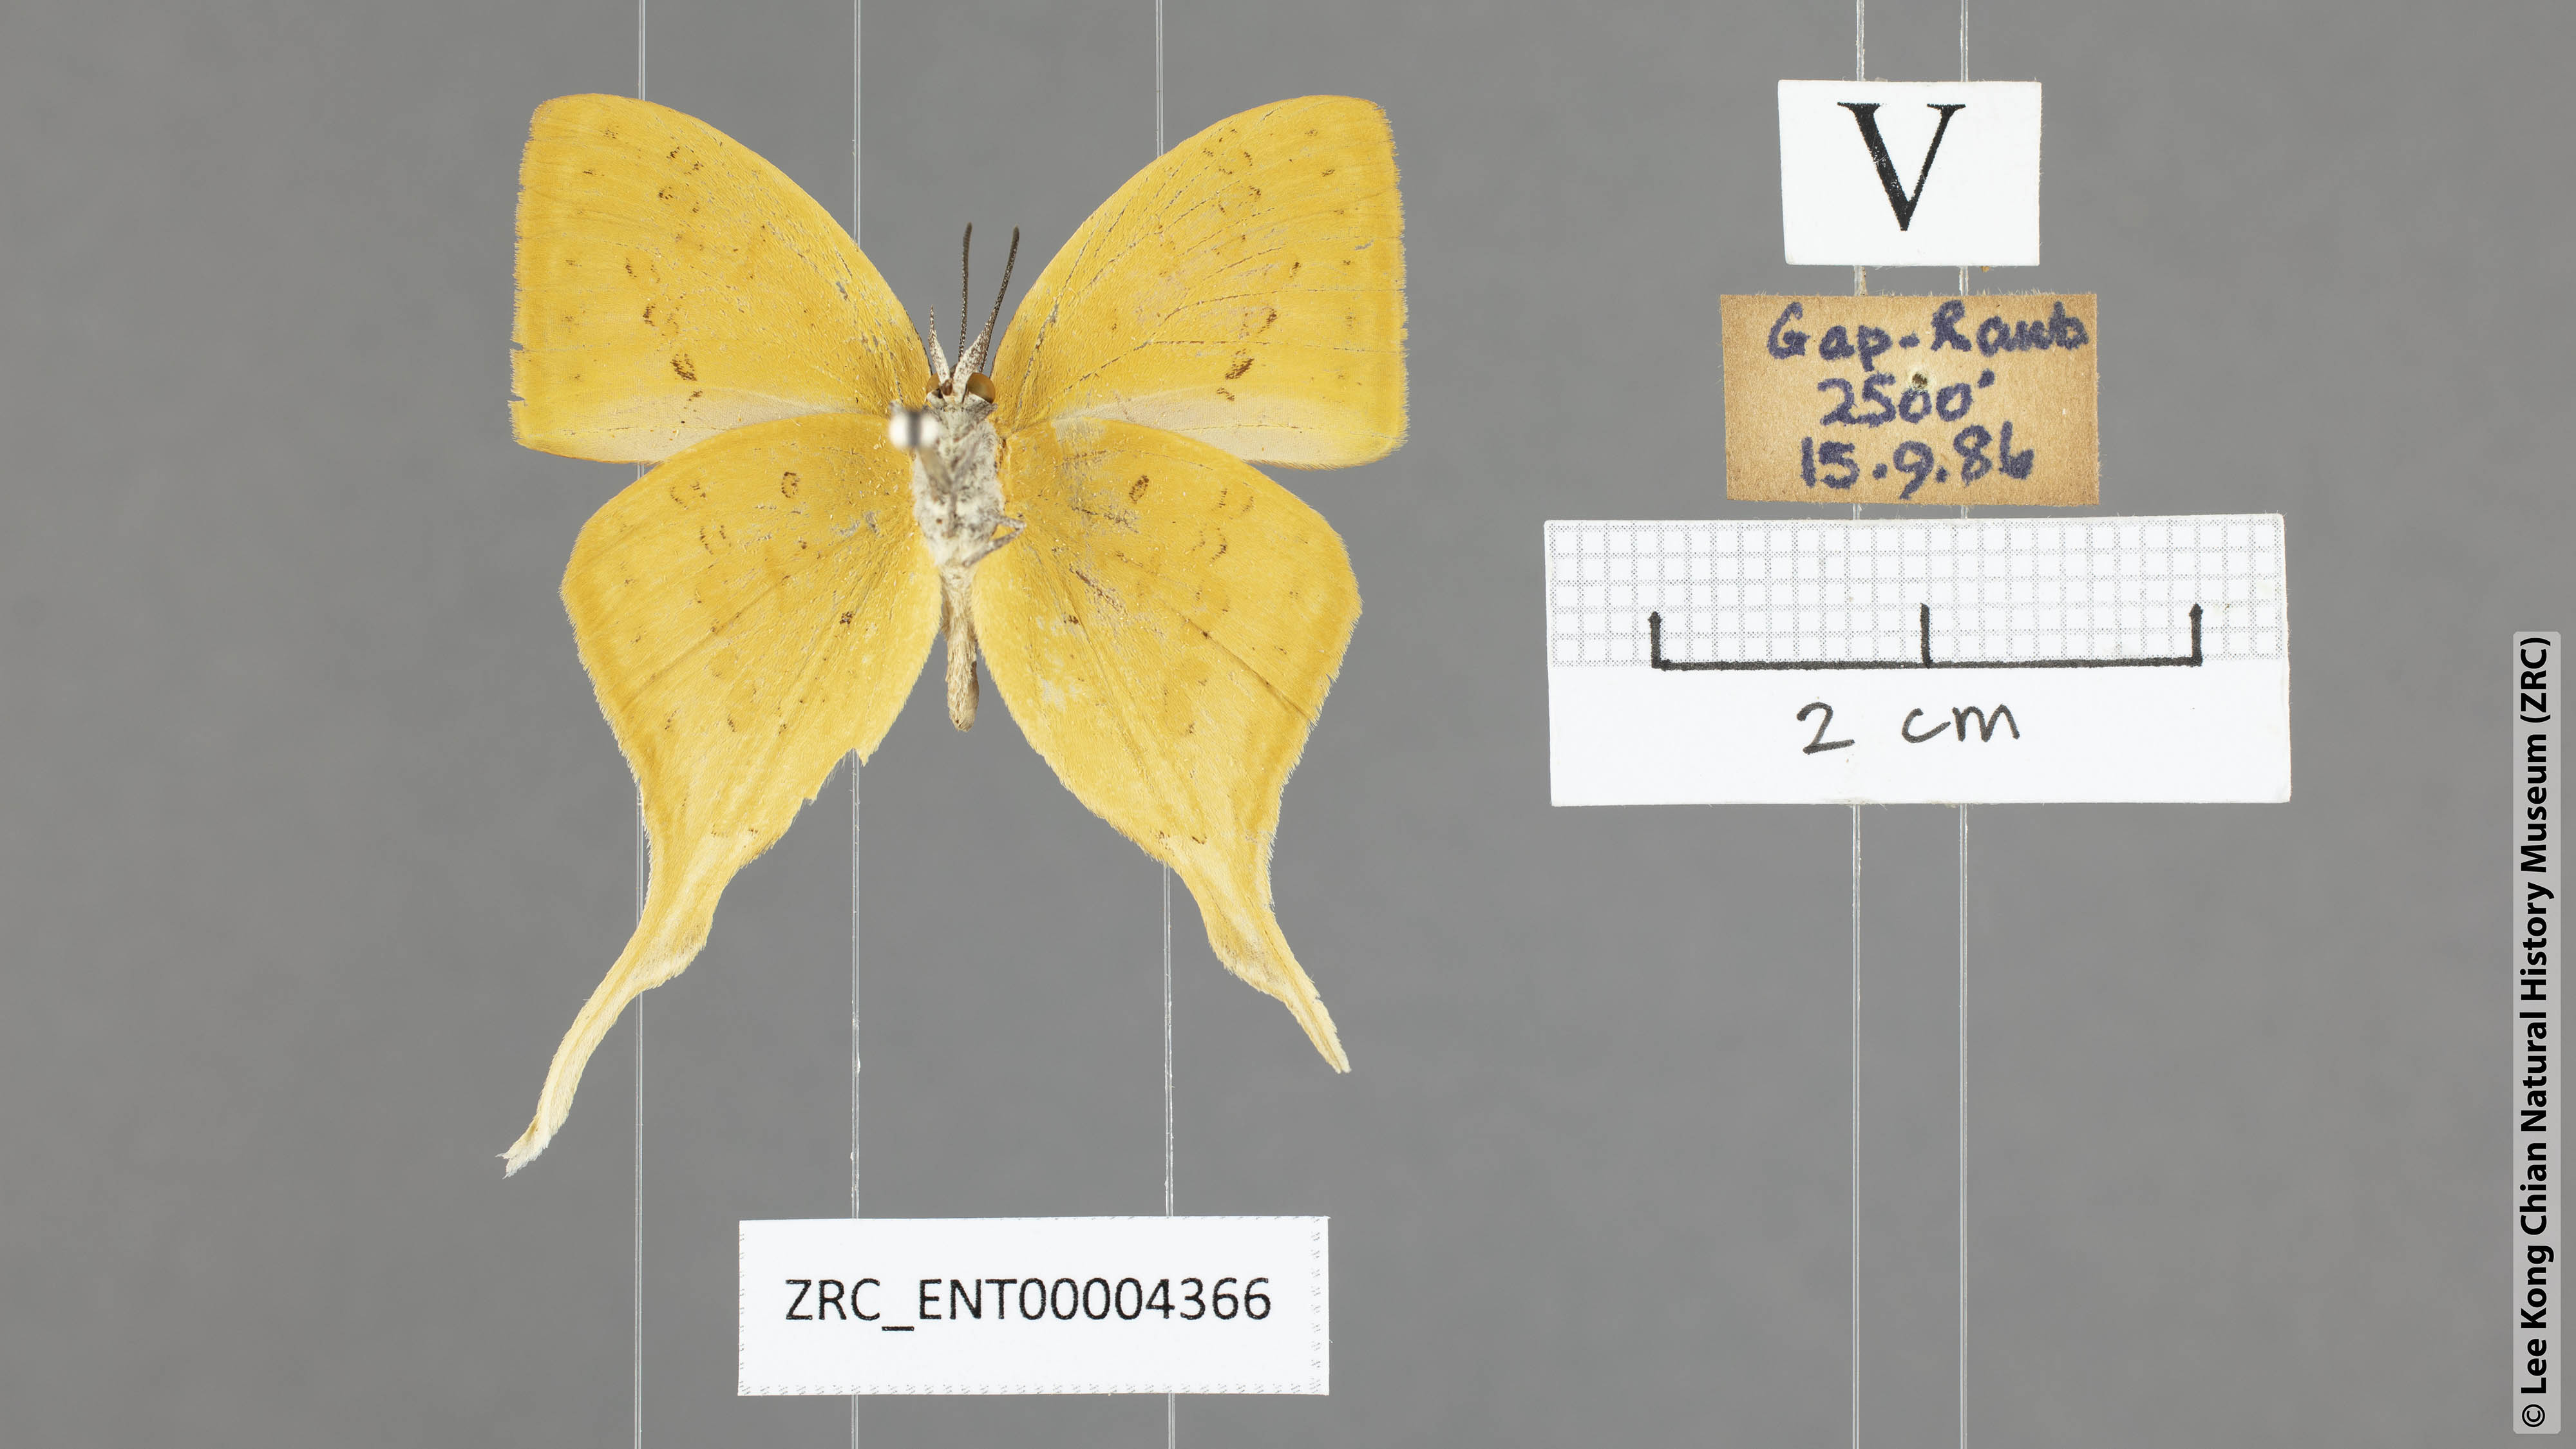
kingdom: Animalia
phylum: Arthropoda
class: Insecta
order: Lepidoptera
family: Lycaenidae
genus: Loxura
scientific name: Loxura cassiopeia
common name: Malayan yamfly
